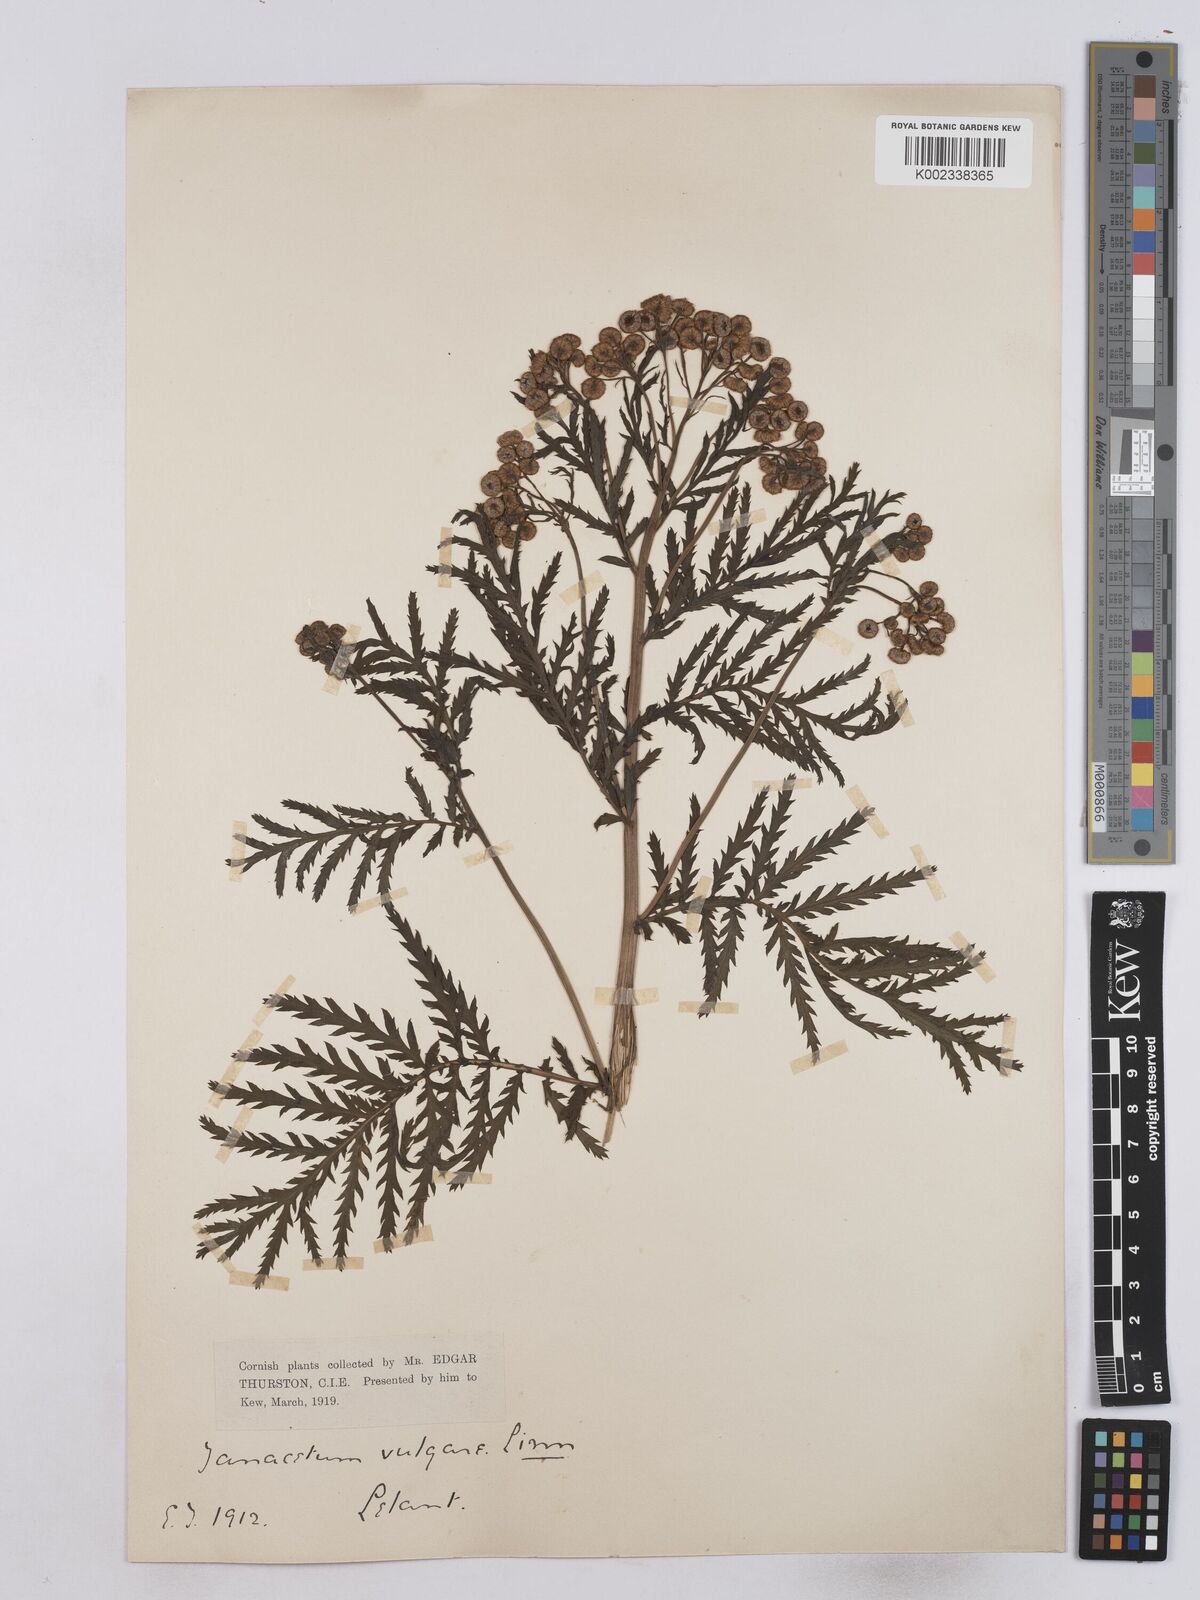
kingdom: Plantae
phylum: Tracheophyta
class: Magnoliopsida
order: Asterales
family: Asteraceae
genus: Tanacetum
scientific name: Tanacetum vulgare
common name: Common tansy
